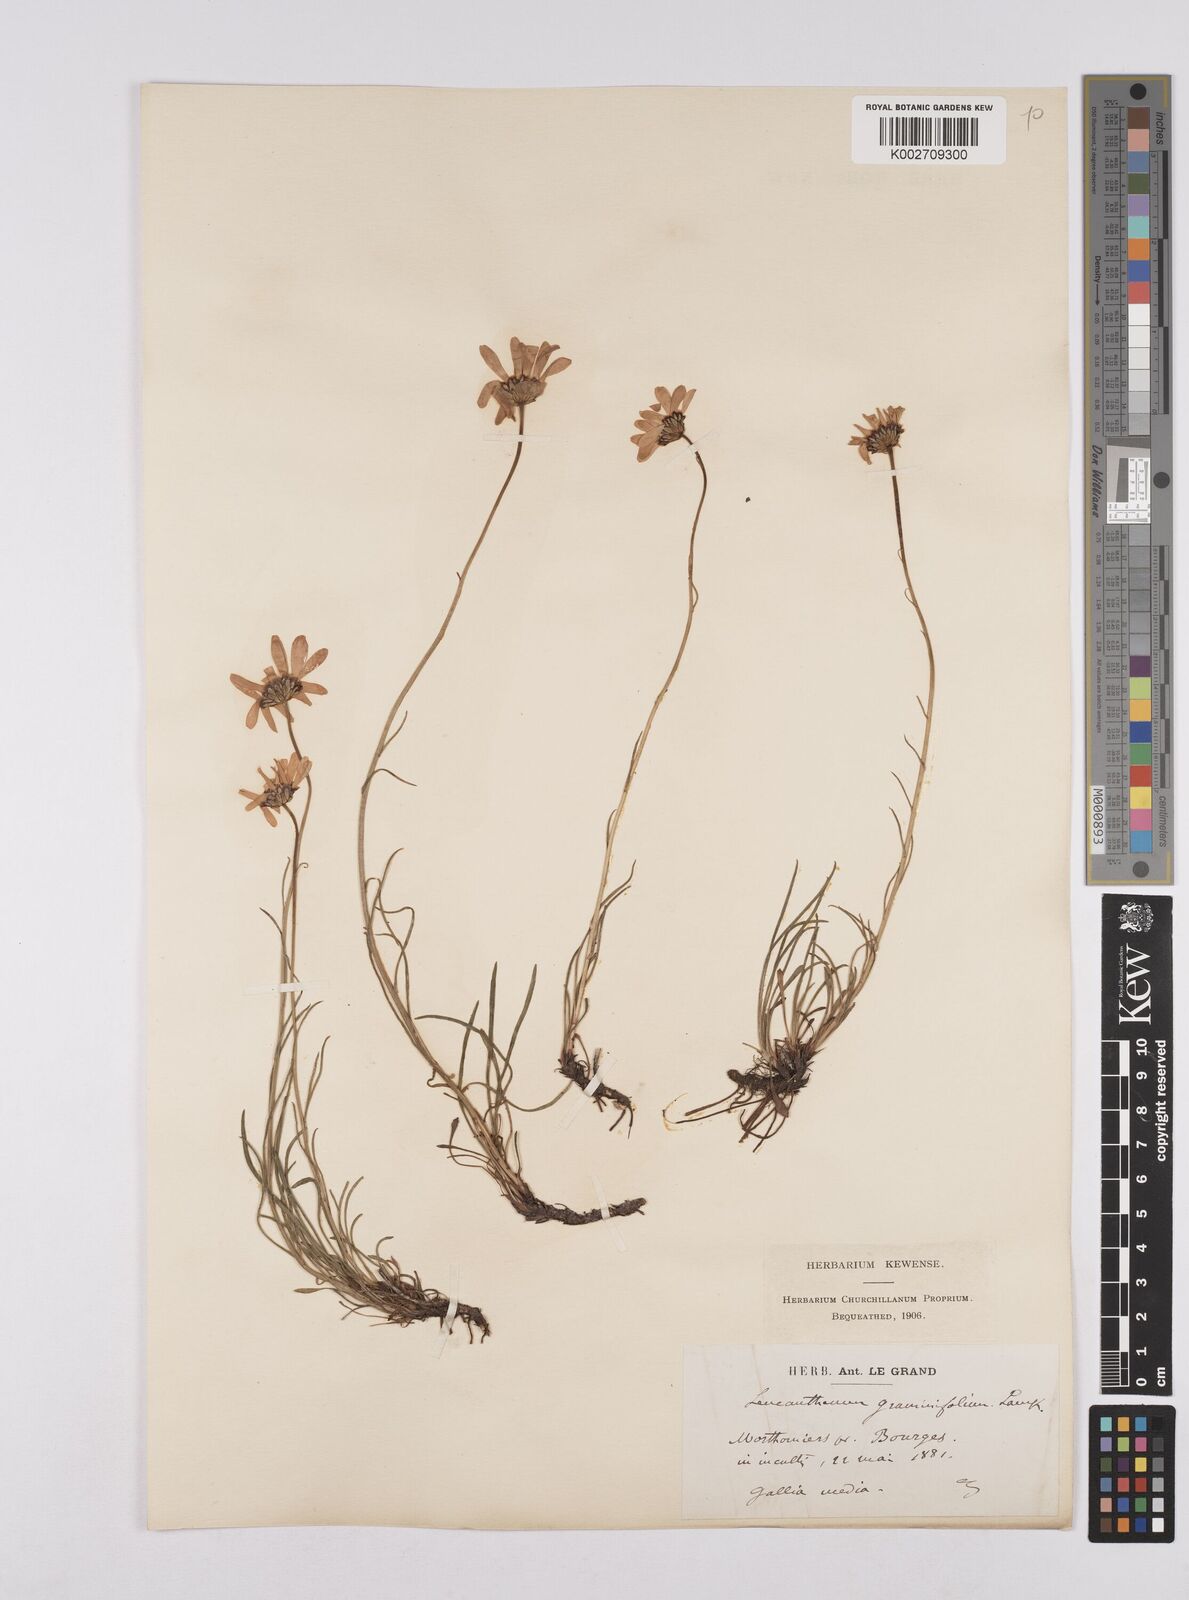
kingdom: Plantae
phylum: Tracheophyta
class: Magnoliopsida
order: Asterales
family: Asteraceae
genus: Leucanthemum
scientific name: Leucanthemum chloroticum
